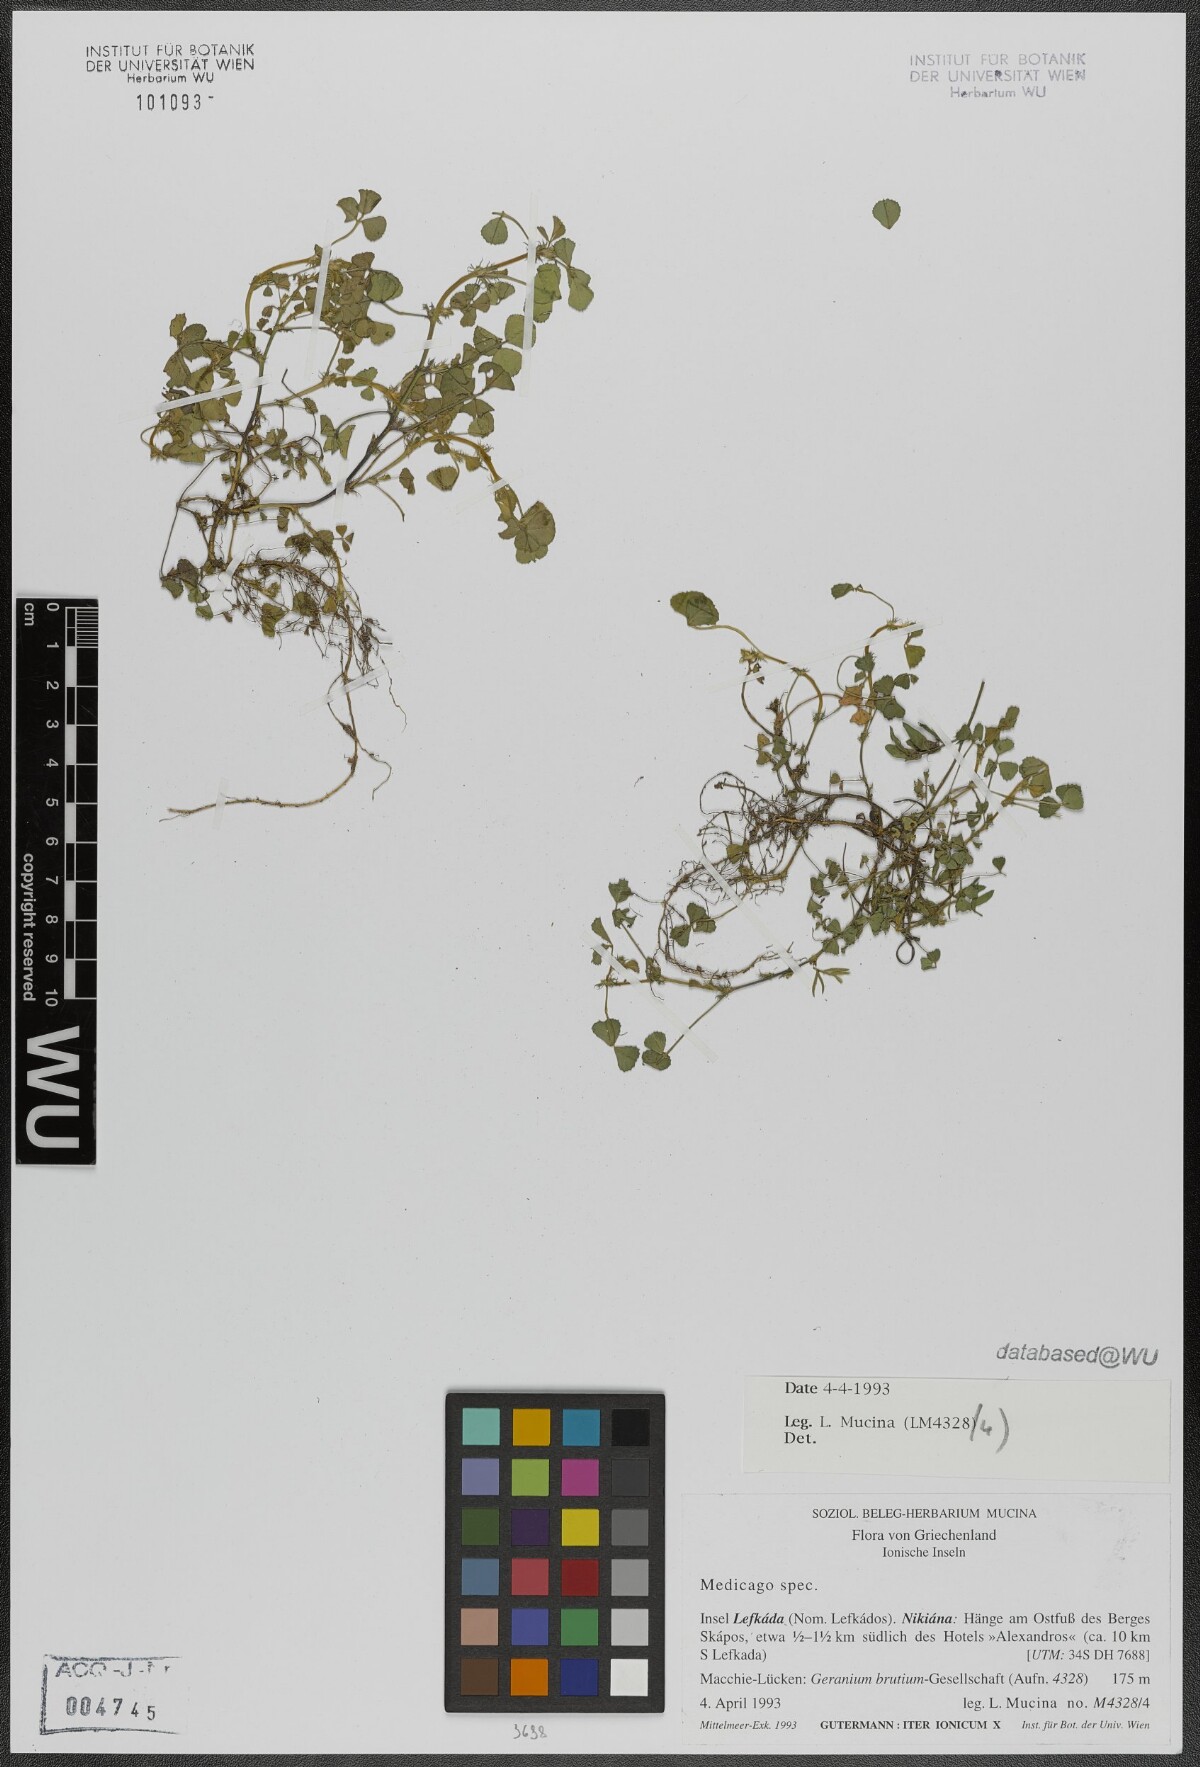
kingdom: Plantae
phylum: Tracheophyta
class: Magnoliopsida
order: Fabales
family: Fabaceae
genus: Medicago
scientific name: Medicago
